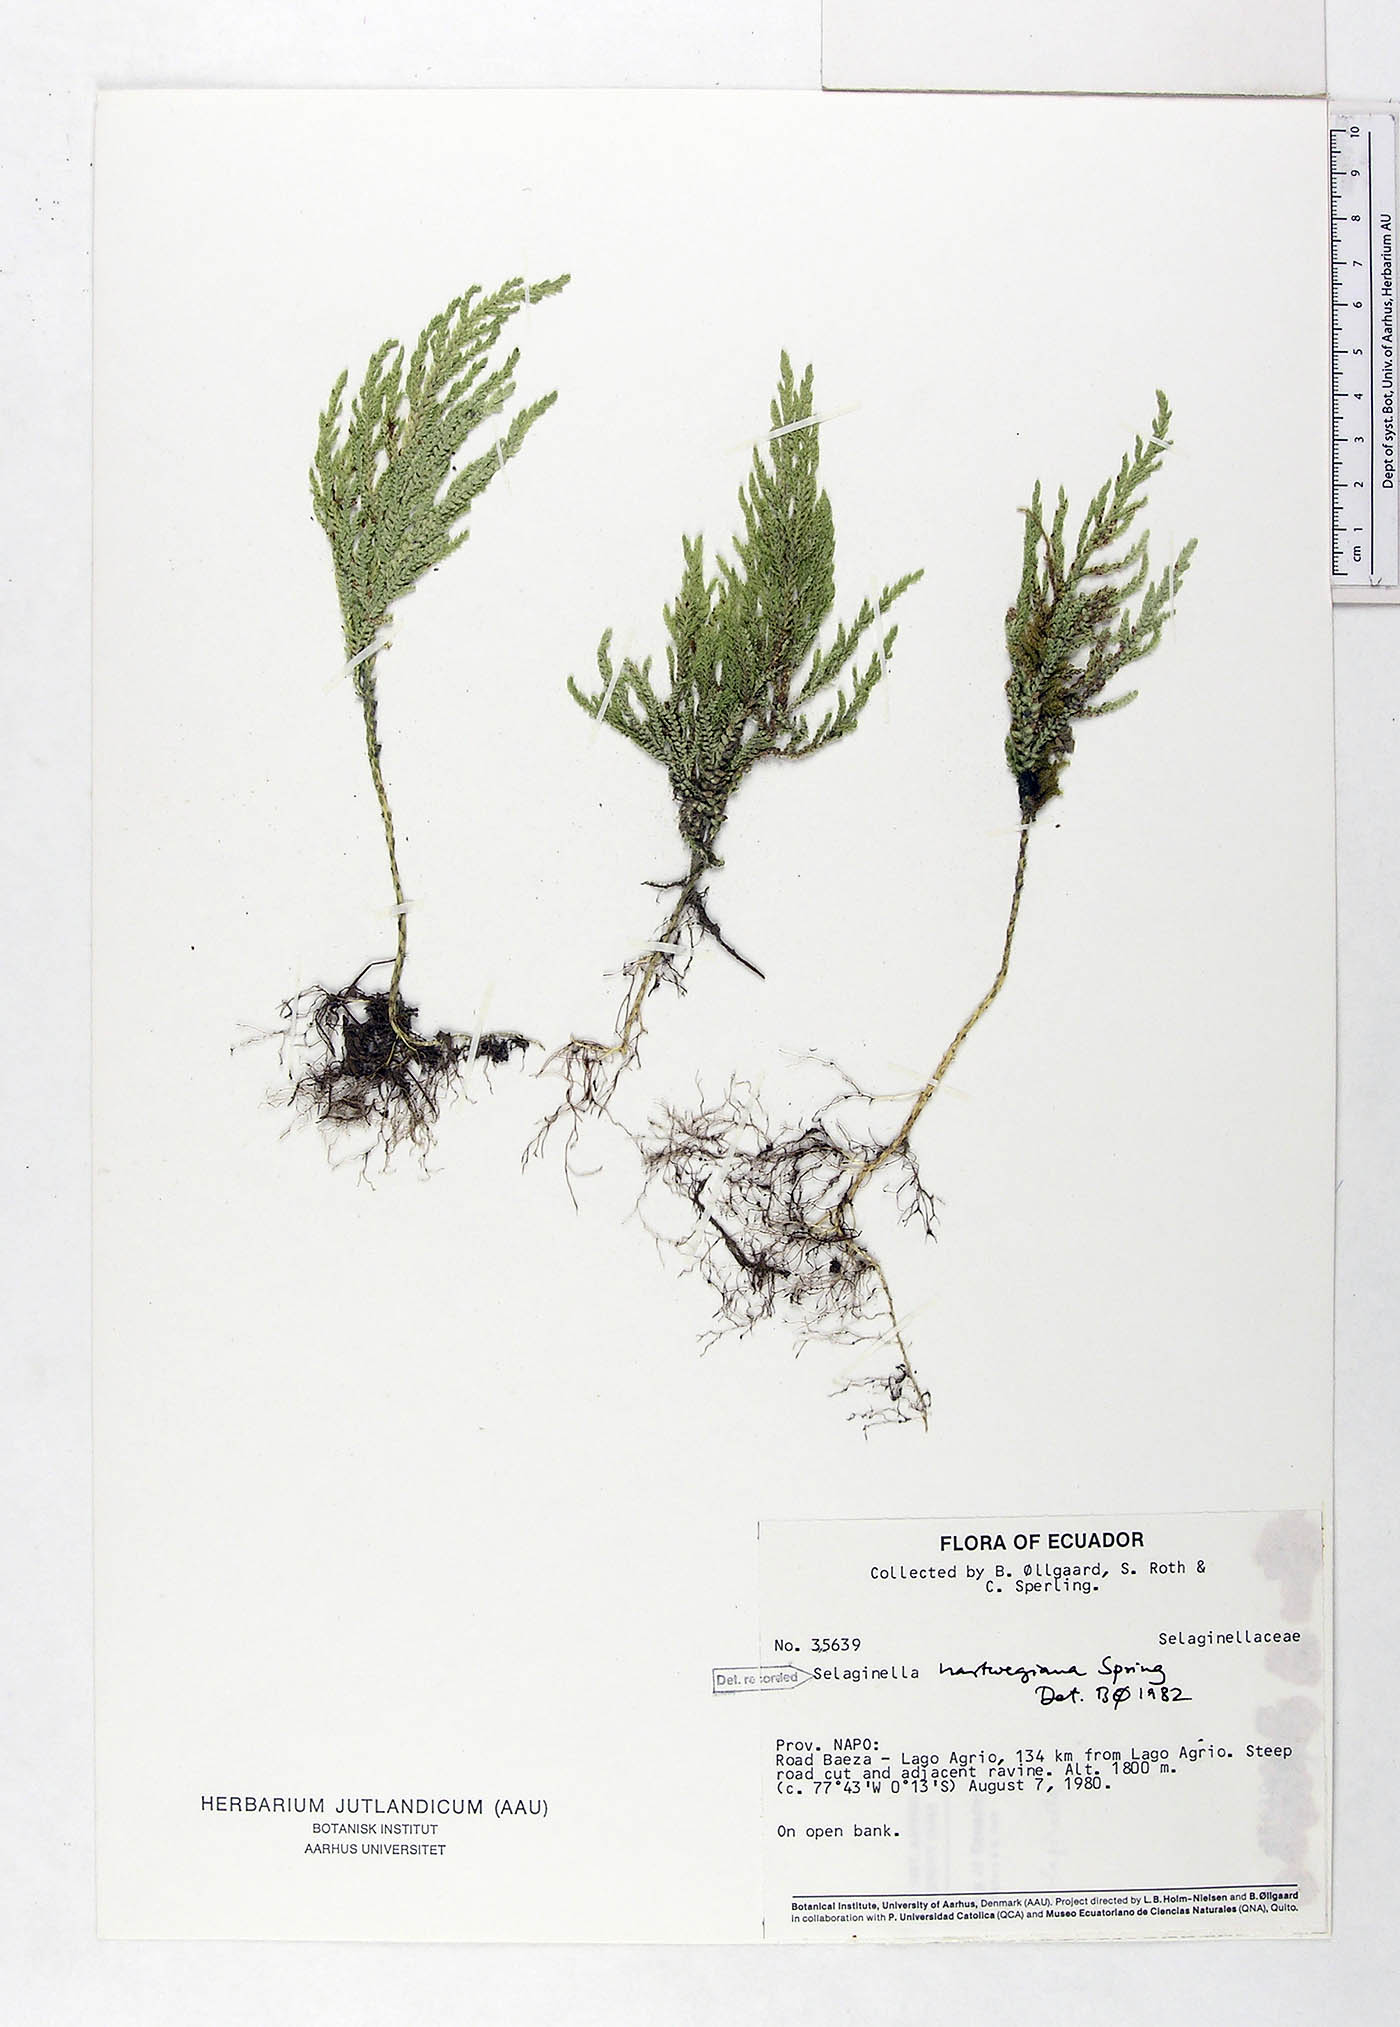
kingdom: Plantae
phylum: Tracheophyta
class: Lycopodiopsida
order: Selaginellales
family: Selaginellaceae
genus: Selaginella
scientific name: Selaginella hartwegiana
